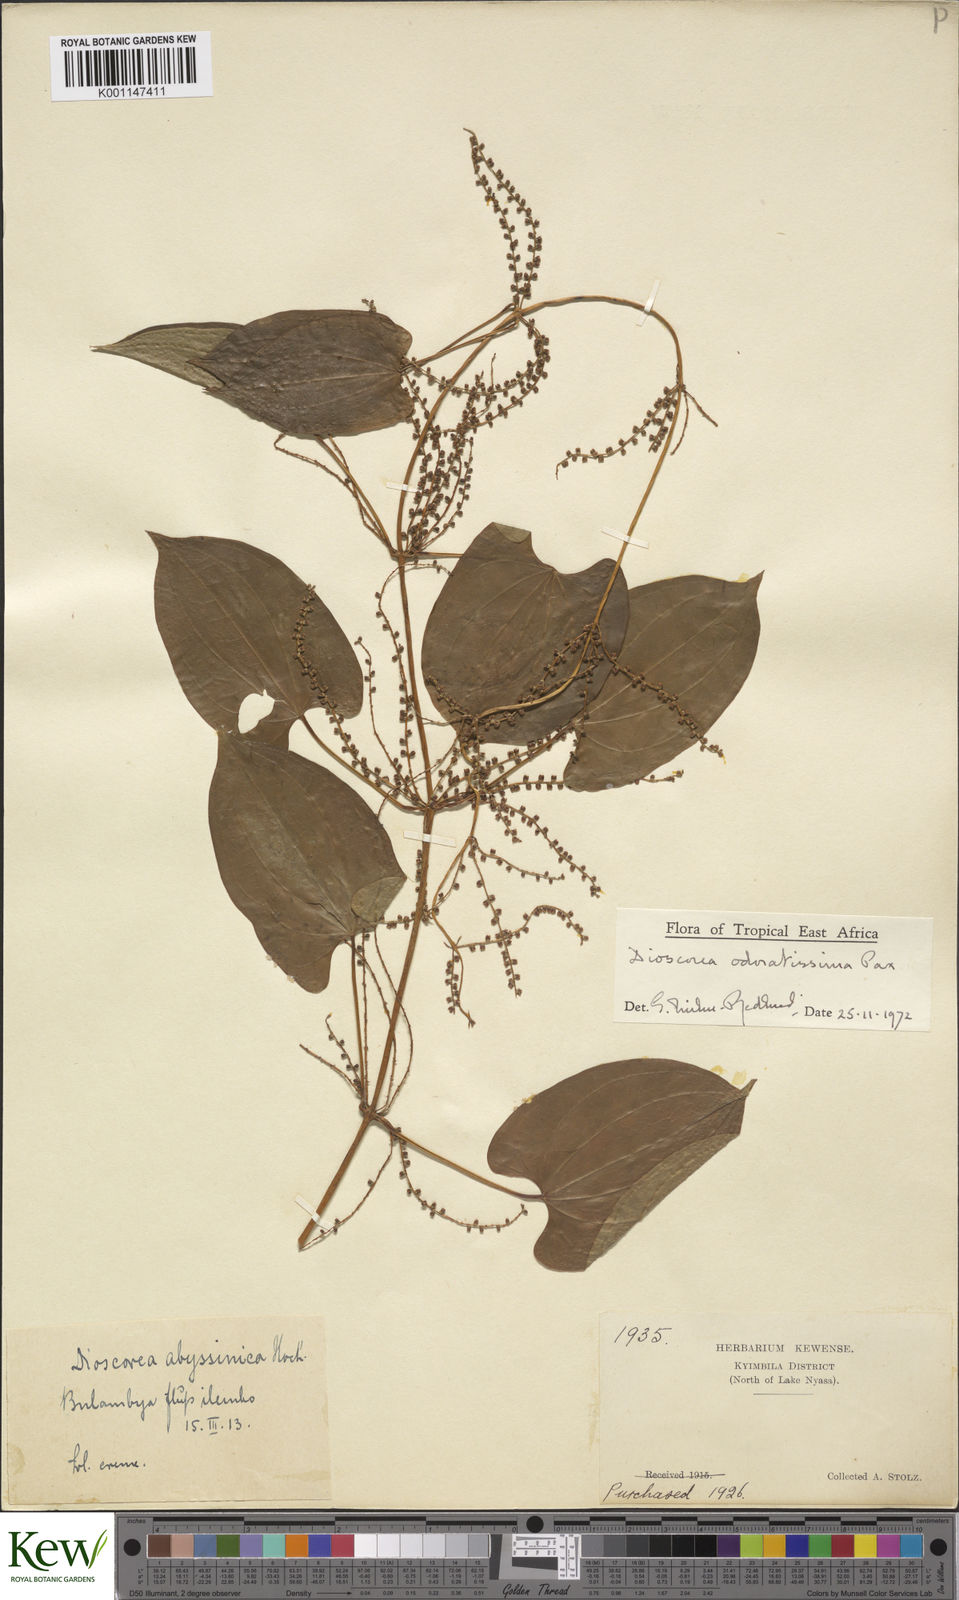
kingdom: Plantae
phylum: Tracheophyta
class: Liliopsida
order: Dioscoreales
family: Dioscoreaceae
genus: Dioscorea
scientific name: Dioscorea praehensilis
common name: Bush yam
